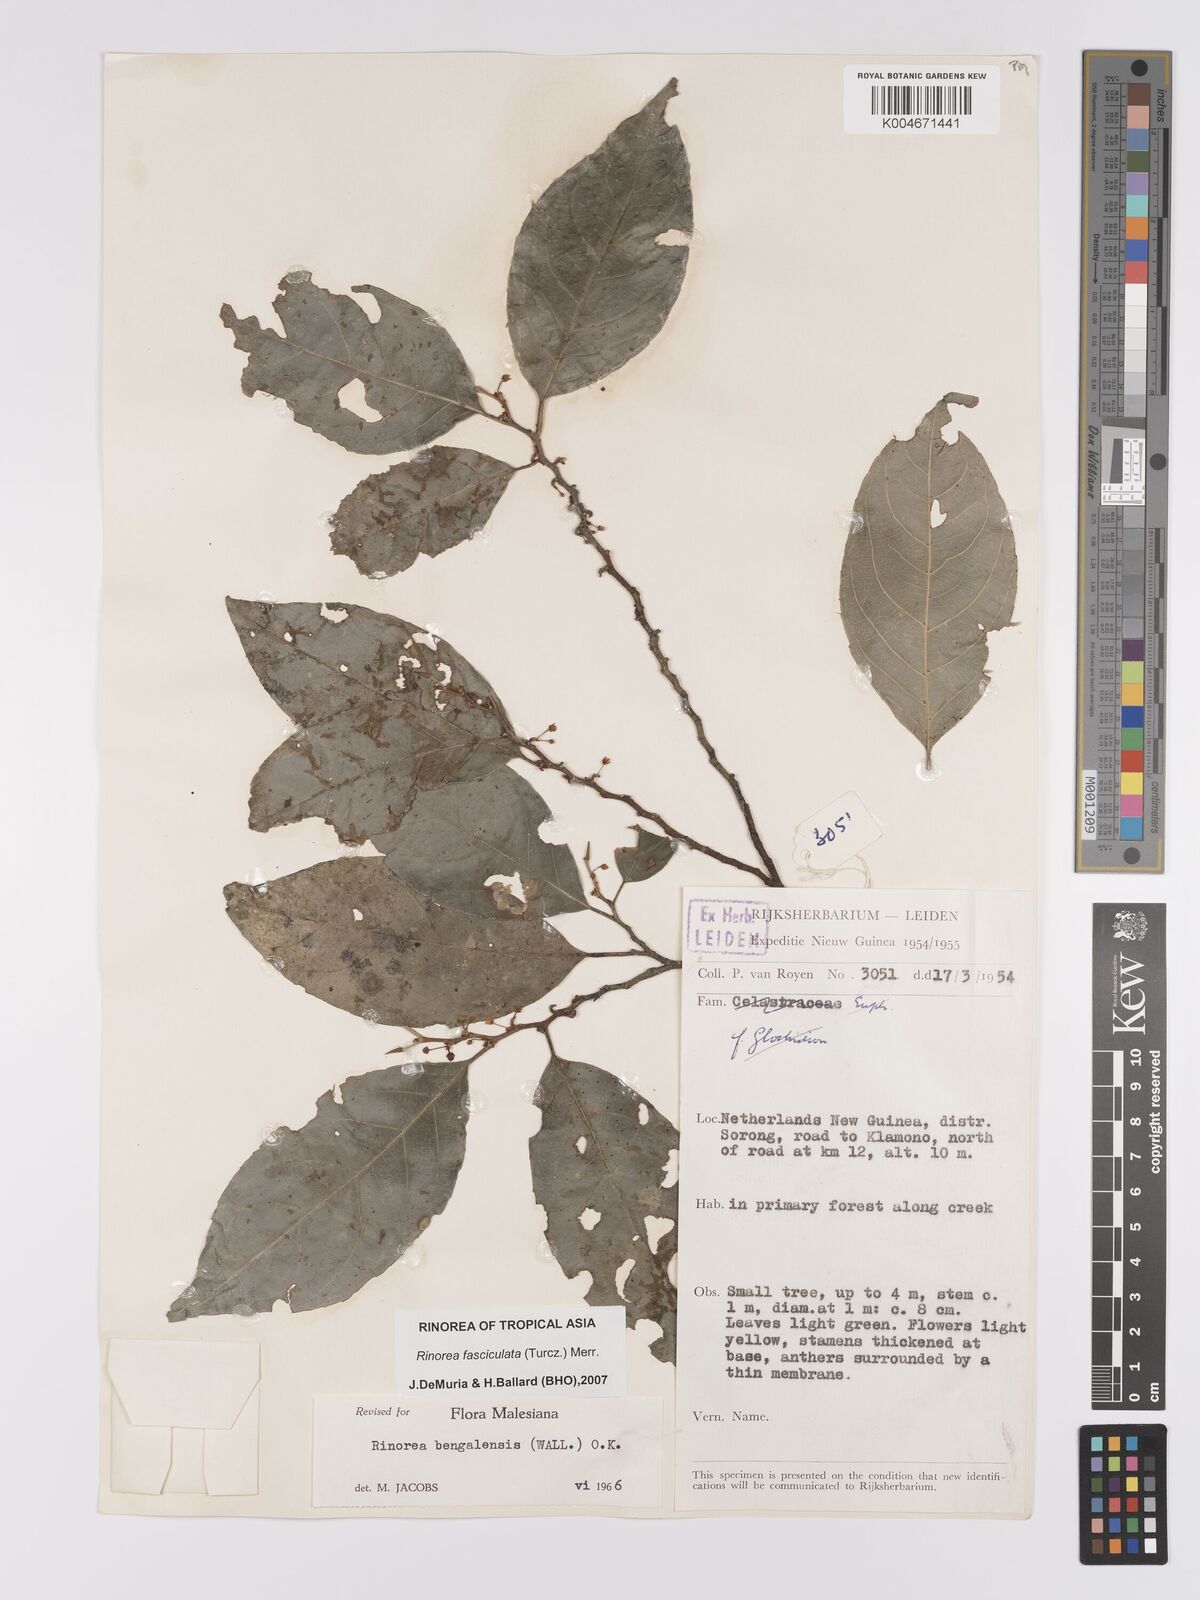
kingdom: Plantae
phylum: Tracheophyta
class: Magnoliopsida
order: Malpighiales
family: Violaceae
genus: Rinorea
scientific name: Rinorea bengalensis
